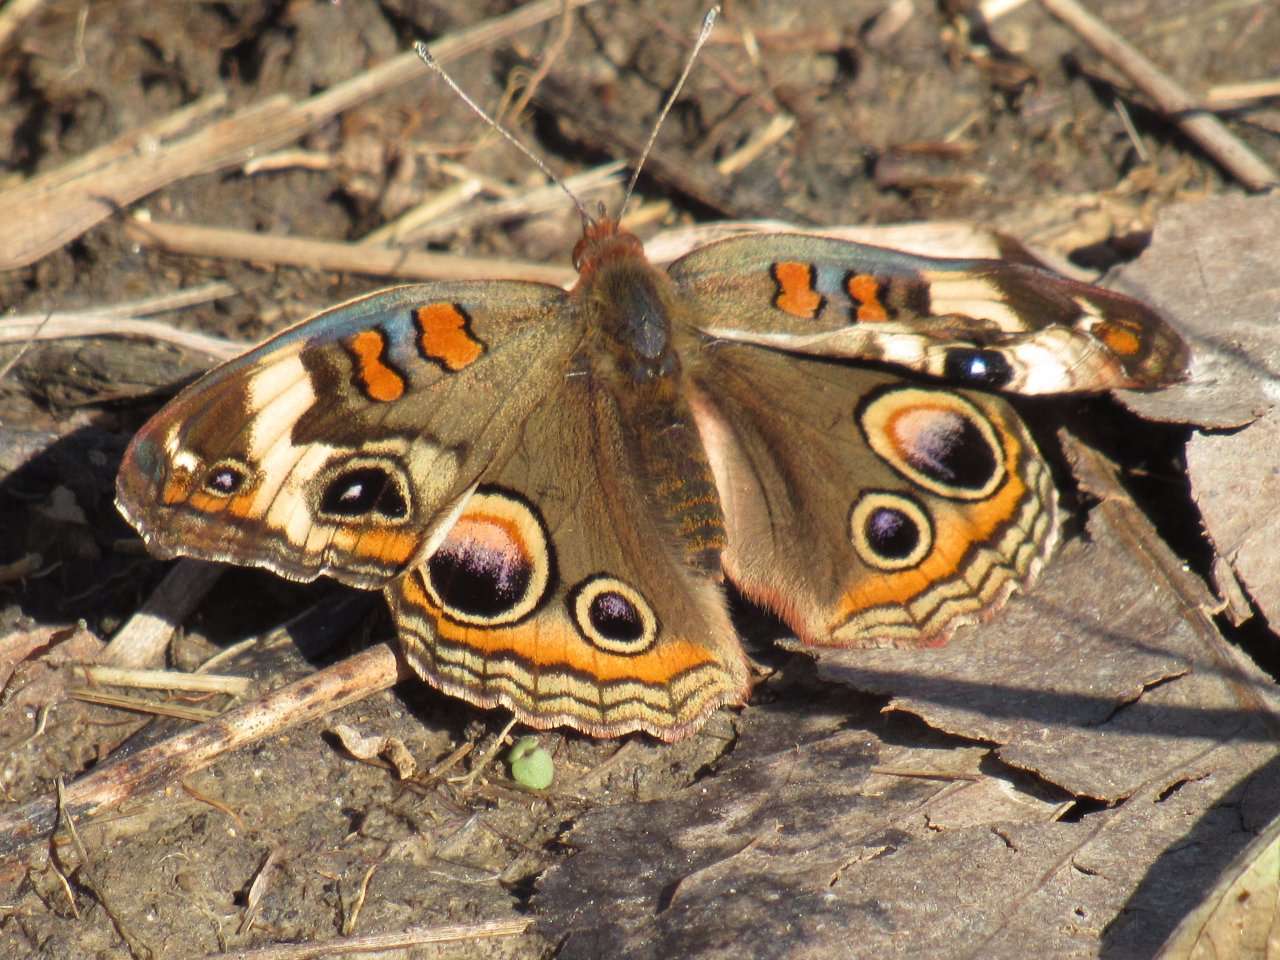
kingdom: Animalia
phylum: Arthropoda
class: Insecta
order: Lepidoptera
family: Nymphalidae
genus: Junonia
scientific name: Junonia coenia
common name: Common Buckeye
